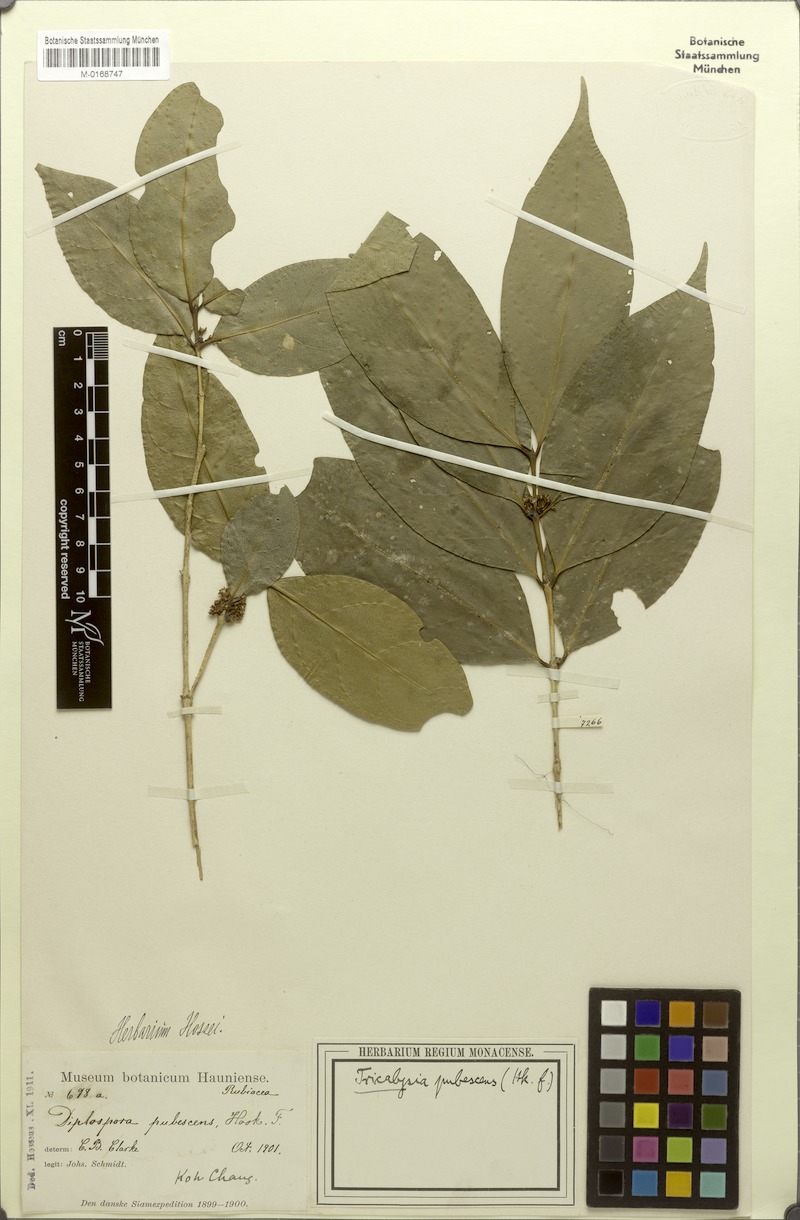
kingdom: Plantae
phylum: Tracheophyta
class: Magnoliopsida
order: Gentianales
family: Rubiaceae
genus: Diplospora
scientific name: Diplospora pubescens
